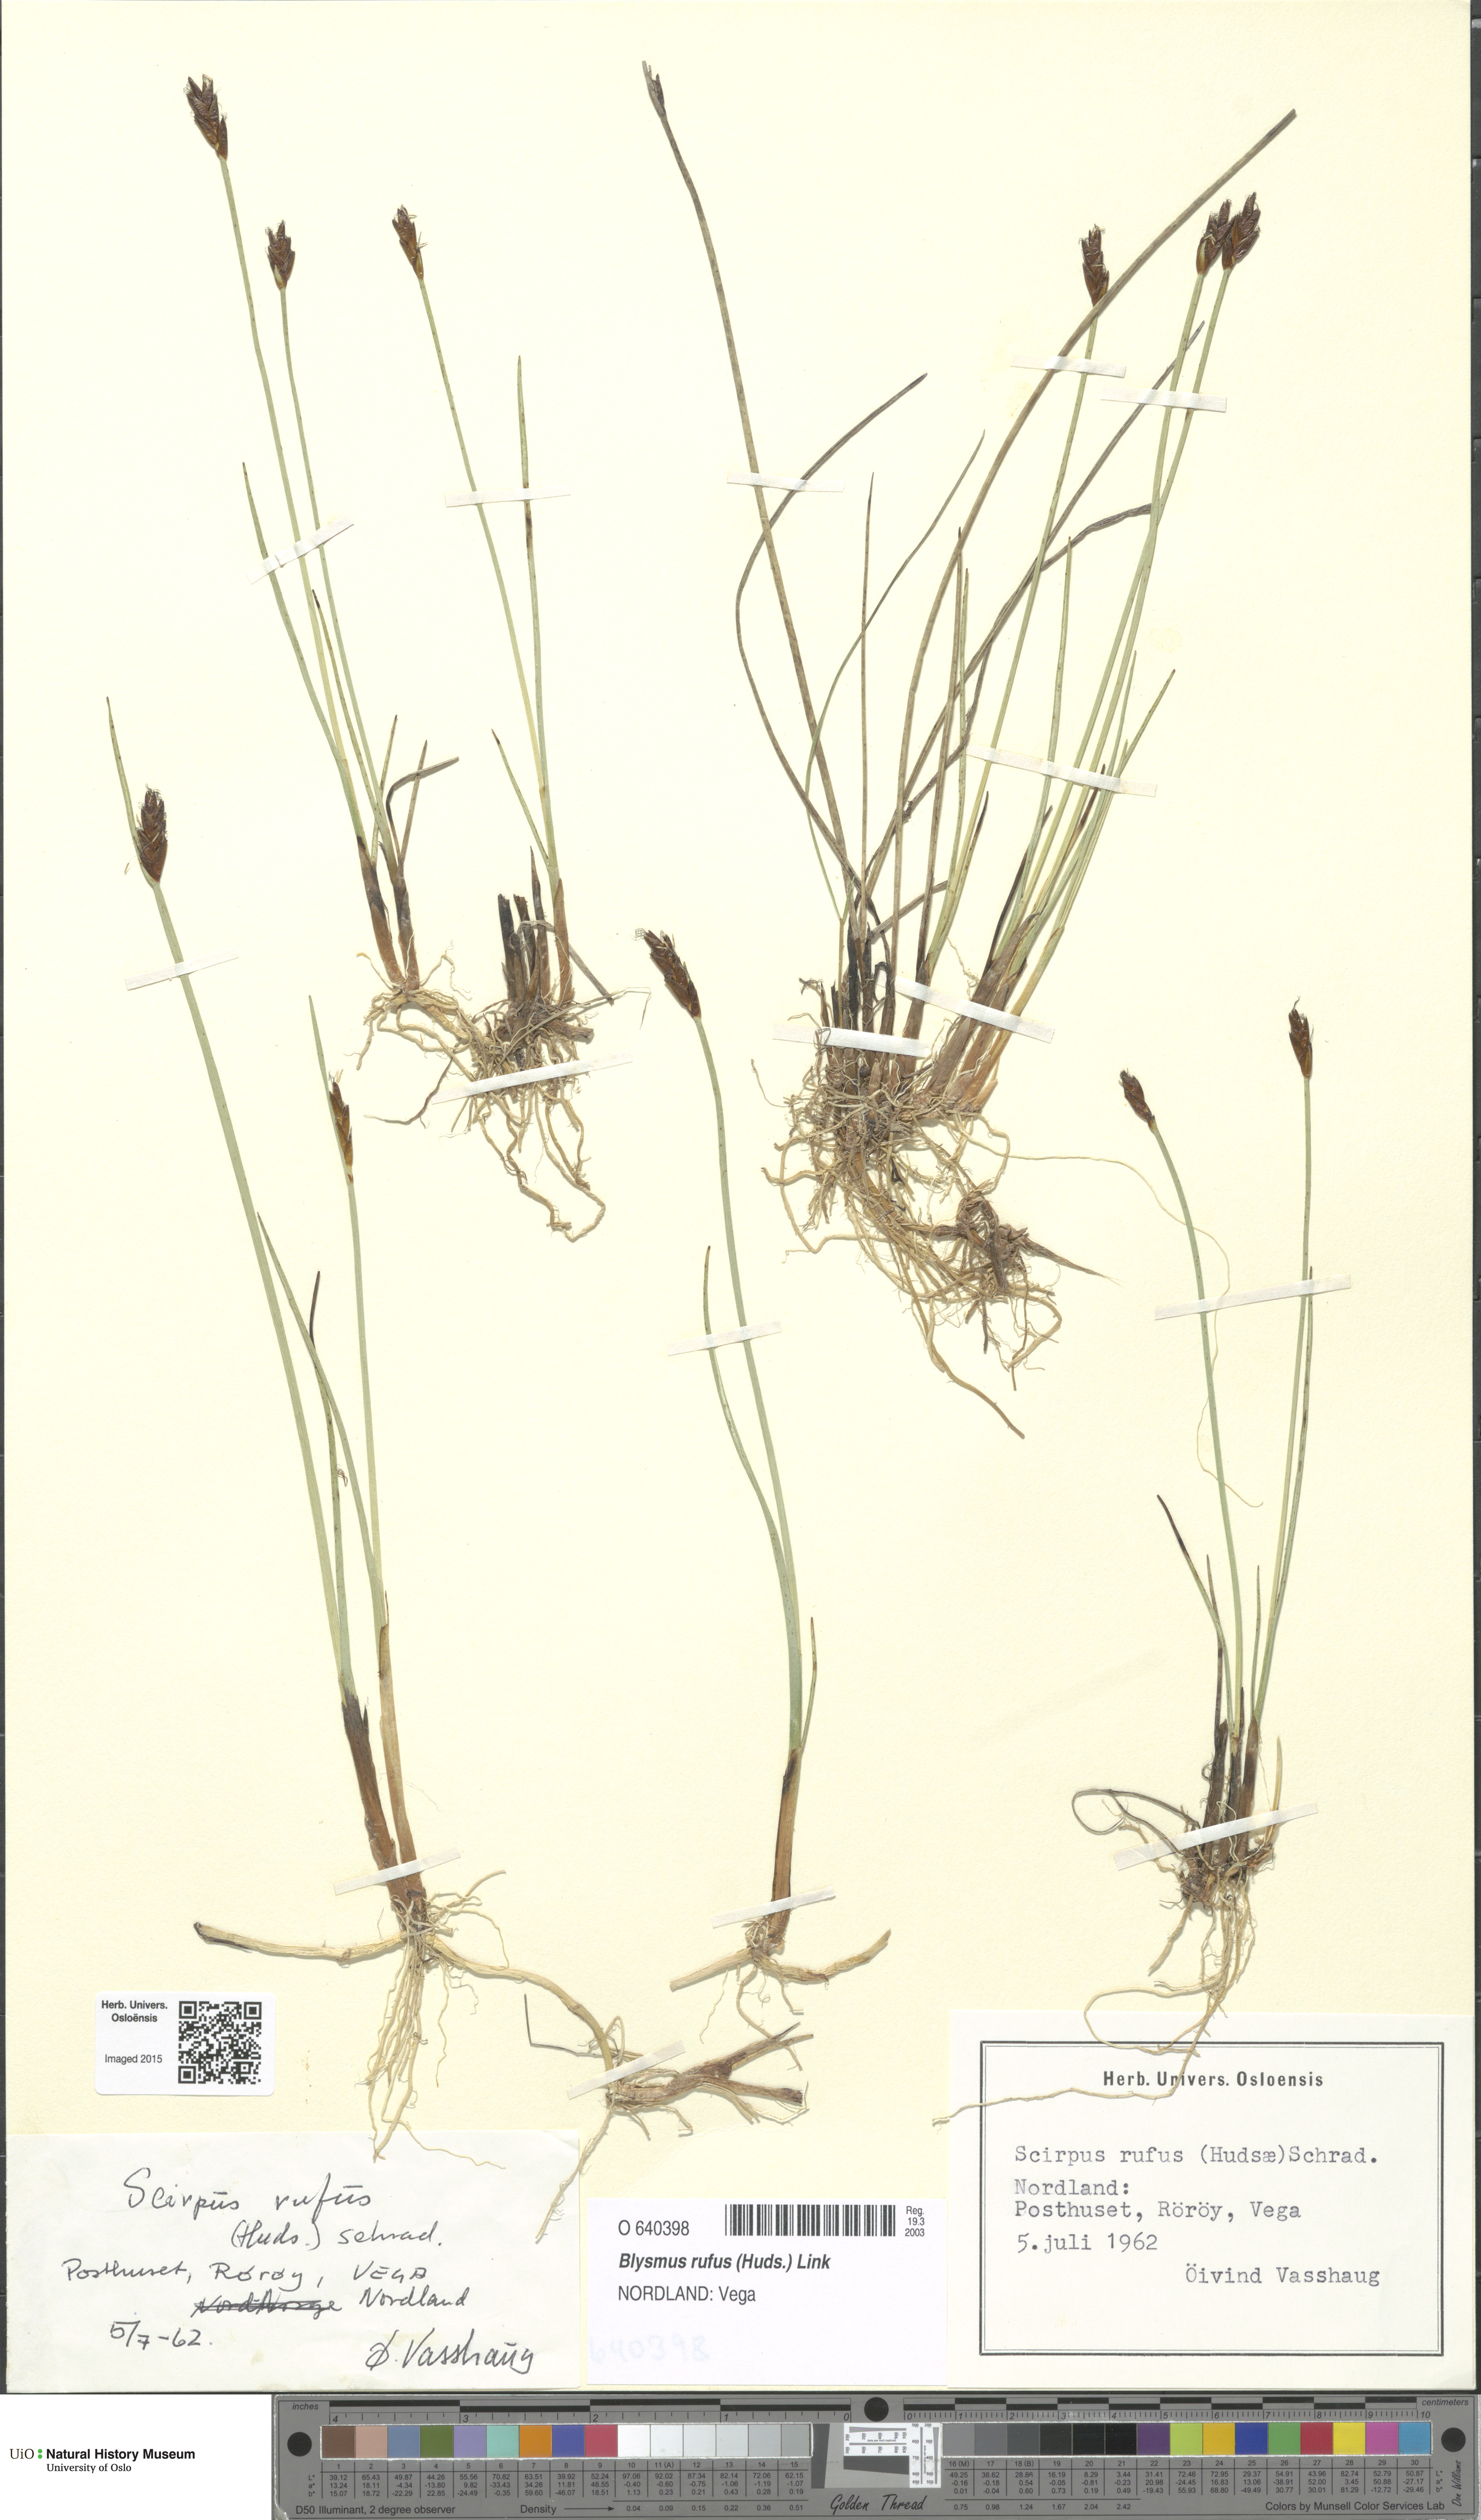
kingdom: Plantae
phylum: Tracheophyta
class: Liliopsida
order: Poales
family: Cyperaceae
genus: Blysmus
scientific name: Blysmus rufus
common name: Saltmarsh flat-sedge
